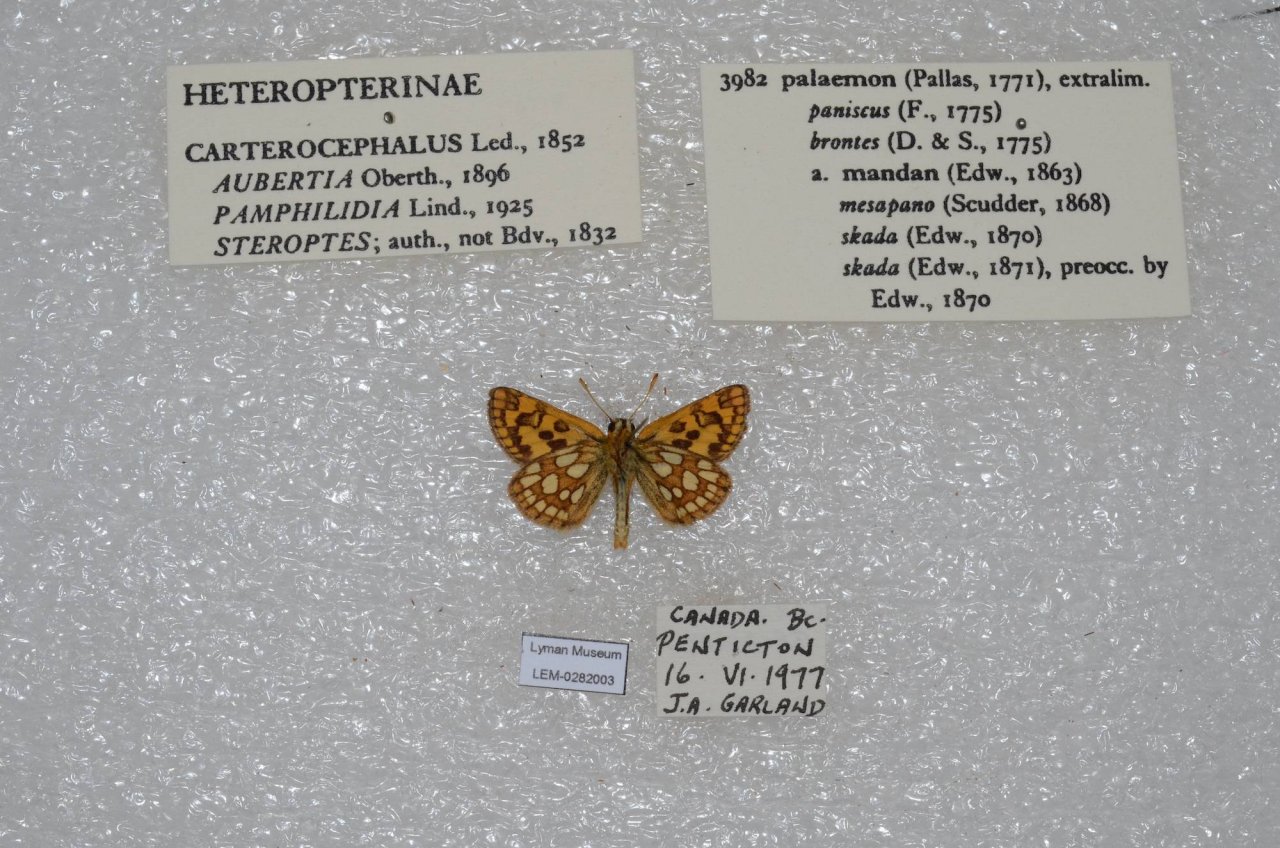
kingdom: Animalia
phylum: Arthropoda
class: Insecta
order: Lepidoptera
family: Hesperiidae
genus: Carterocephalus
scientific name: Carterocephalus palaemon
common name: Chequered Skipper
